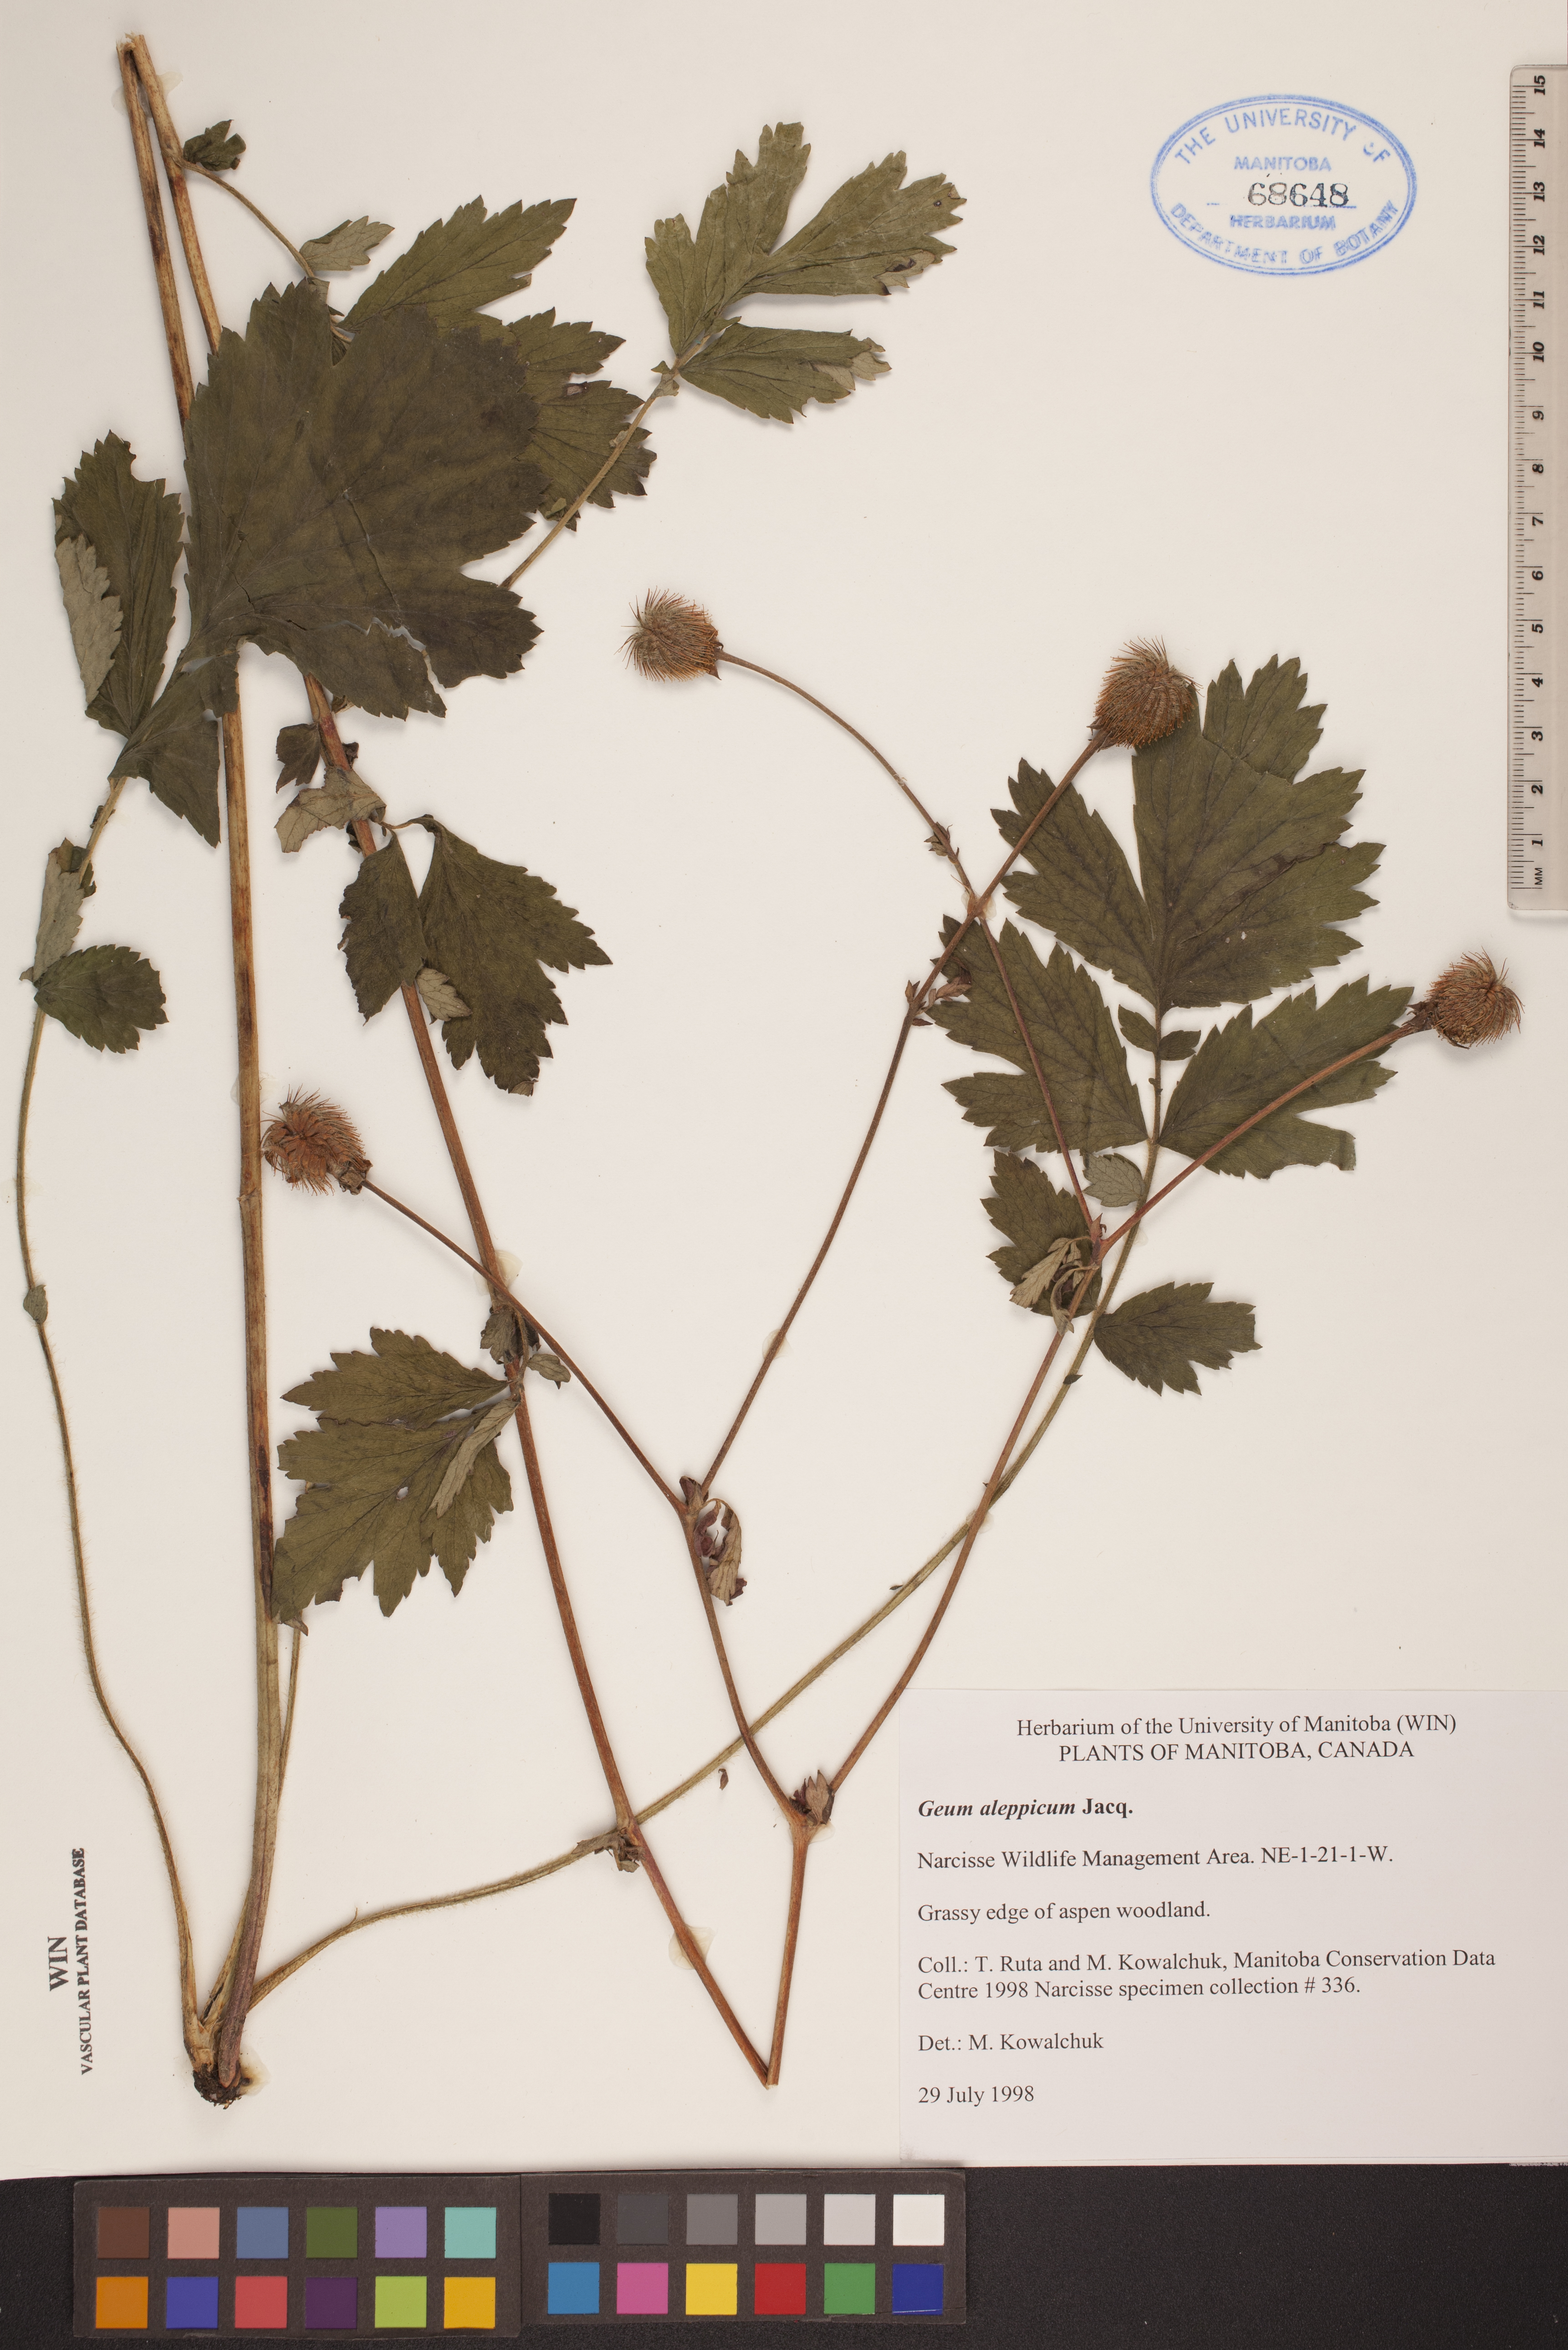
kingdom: Plantae
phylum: Tracheophyta
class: Magnoliopsida
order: Rosales
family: Rosaceae
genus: Geum
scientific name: Geum aleppicum
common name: Yellow avens
